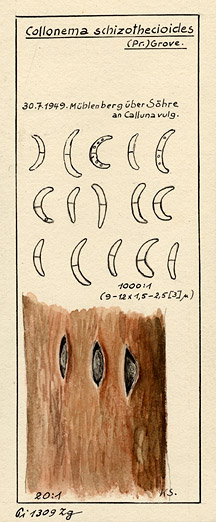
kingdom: Fungi
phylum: Ascomycota
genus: Collonema
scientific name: Collonema
